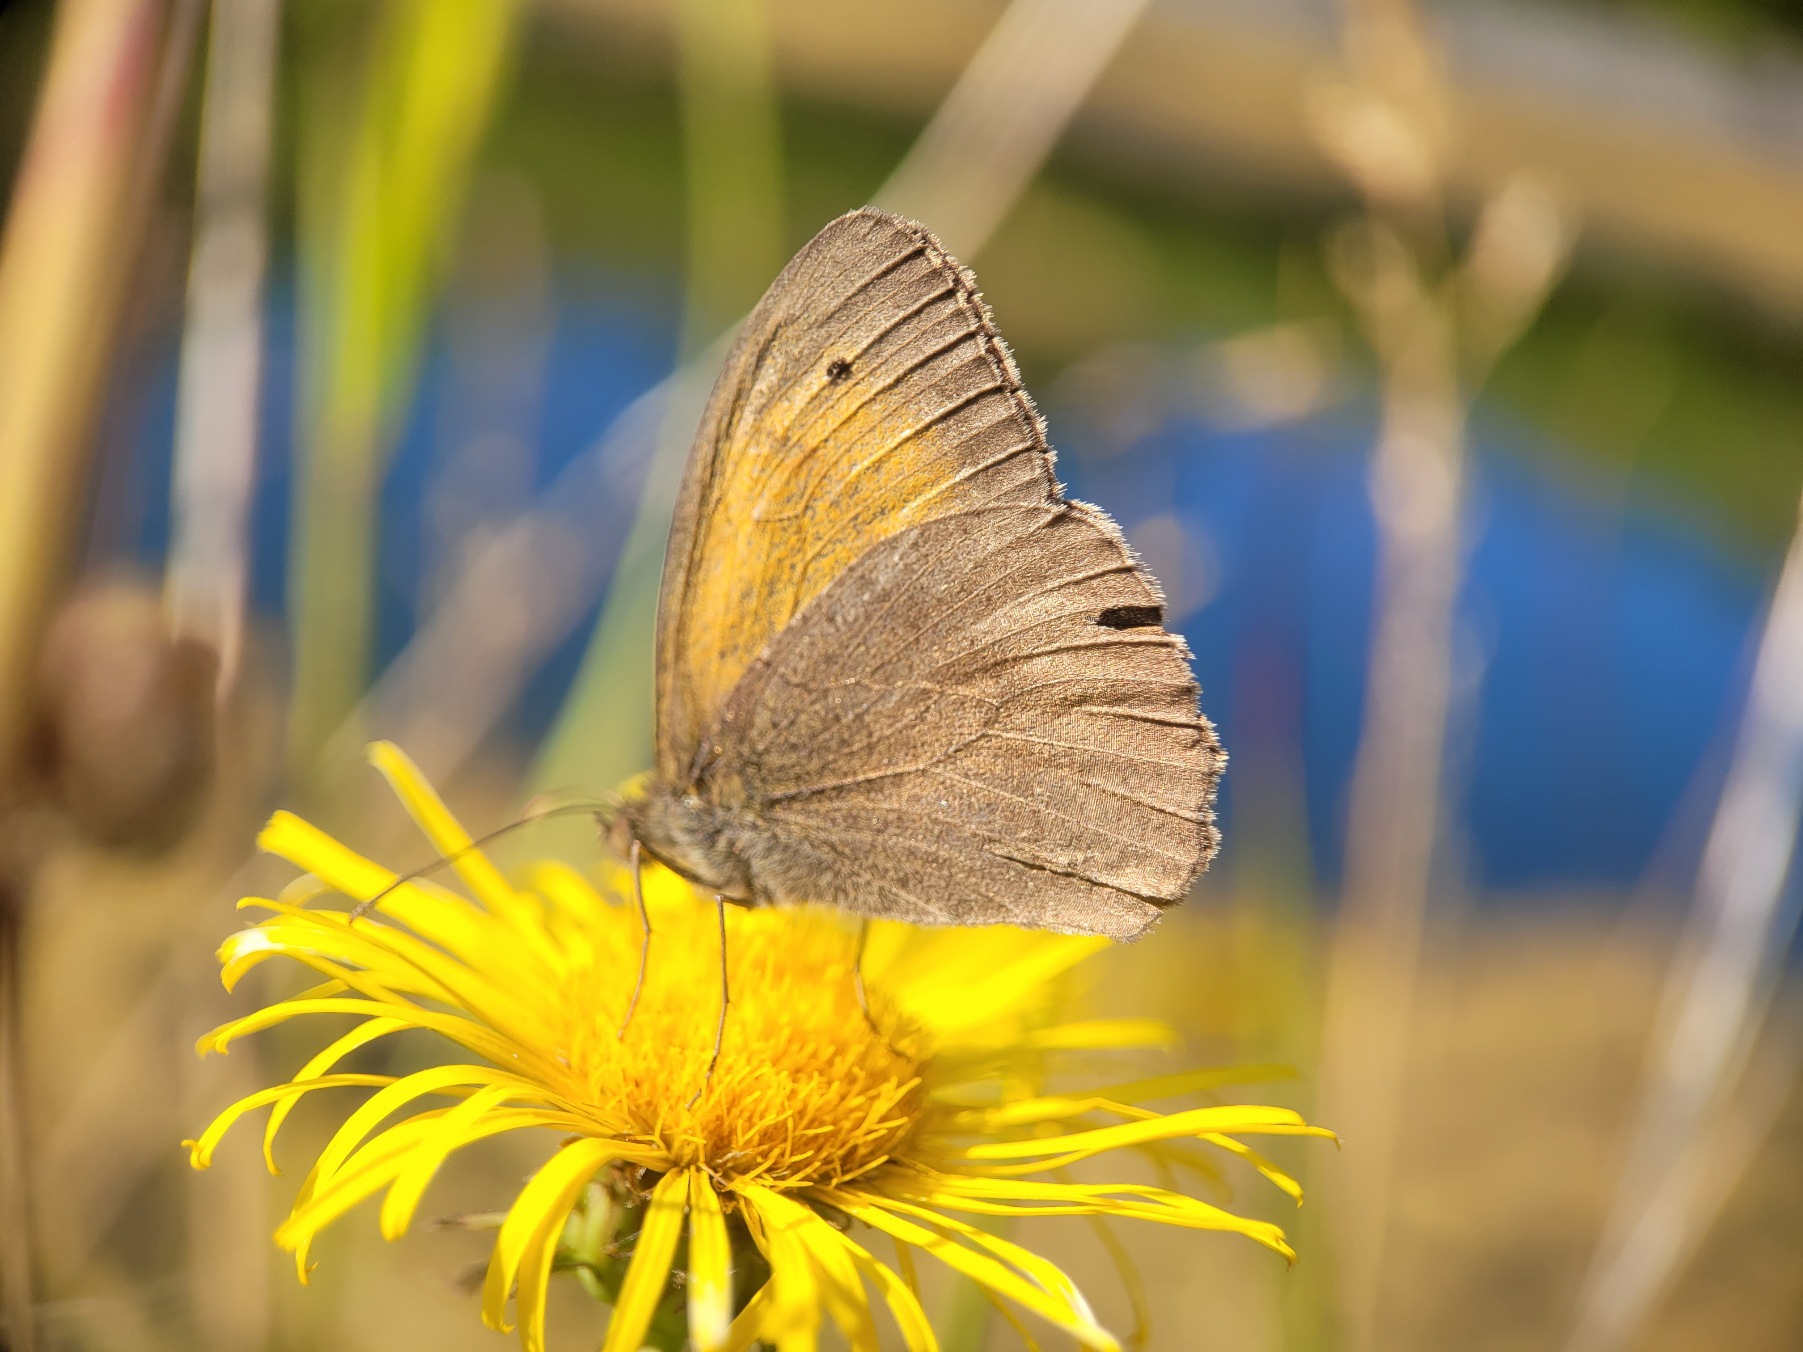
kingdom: Animalia
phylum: Arthropoda
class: Insecta
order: Lepidoptera
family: Nymphalidae
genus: Maniola
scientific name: Maniola jurtina
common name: Græsrandøje
